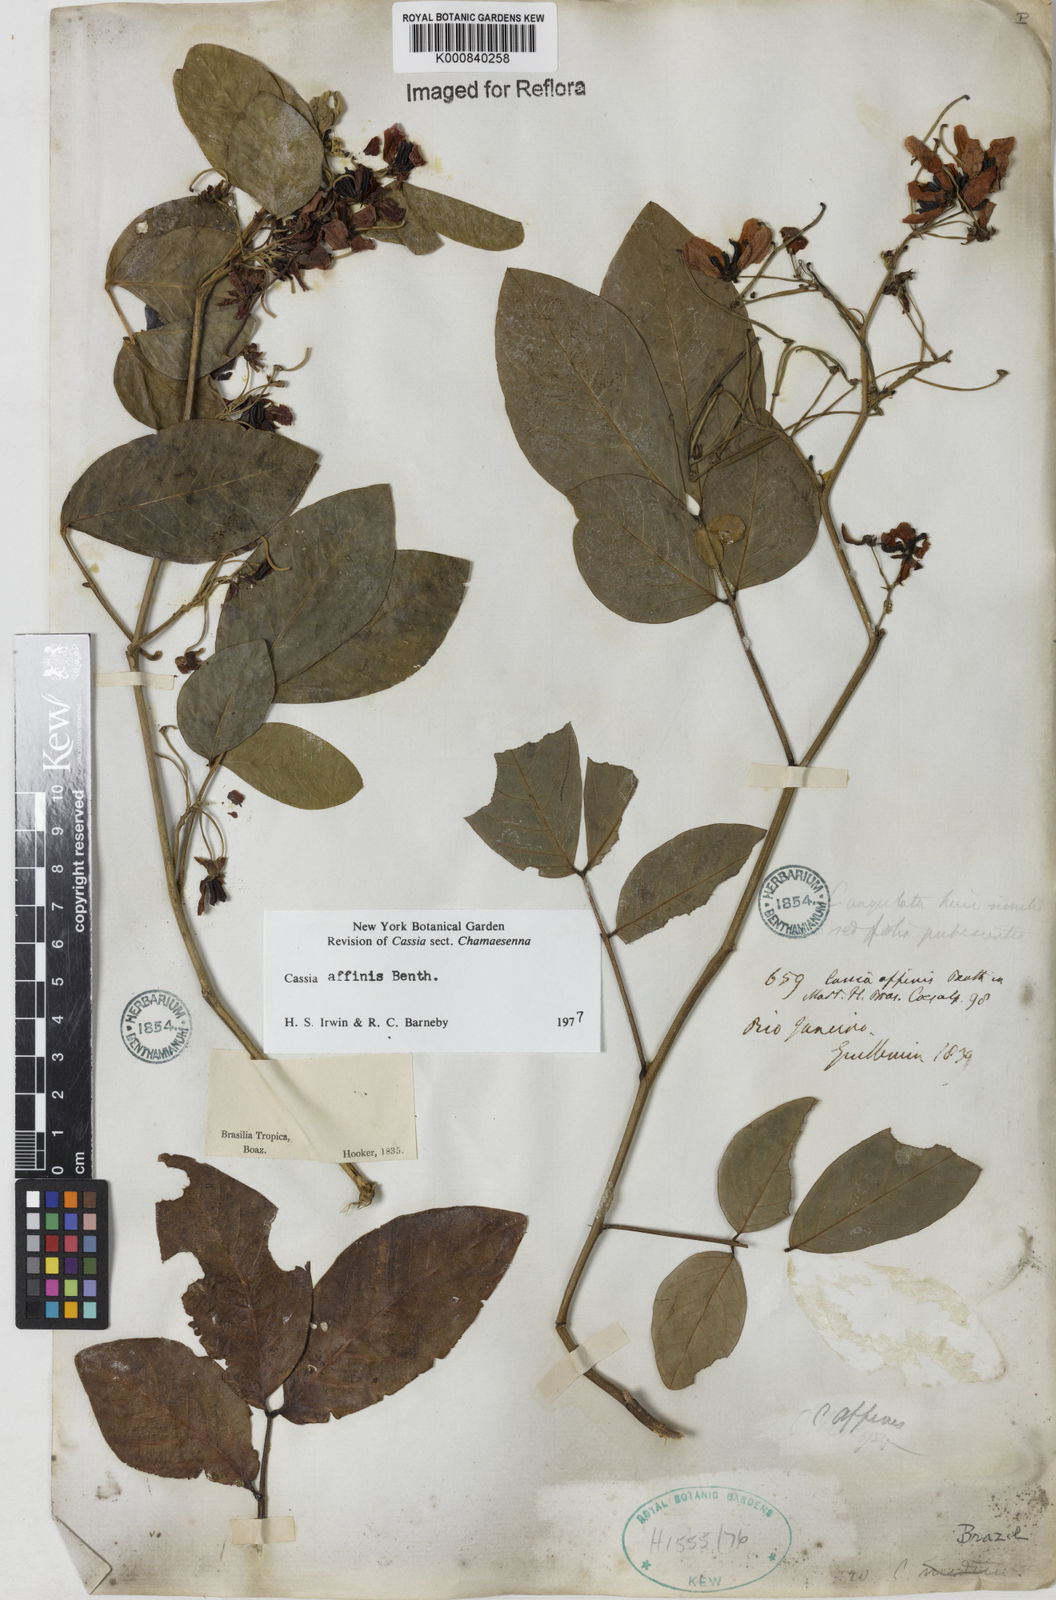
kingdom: Plantae
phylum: Tracheophyta
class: Magnoliopsida
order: Fabales
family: Fabaceae
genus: Senna
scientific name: Senna affinis
